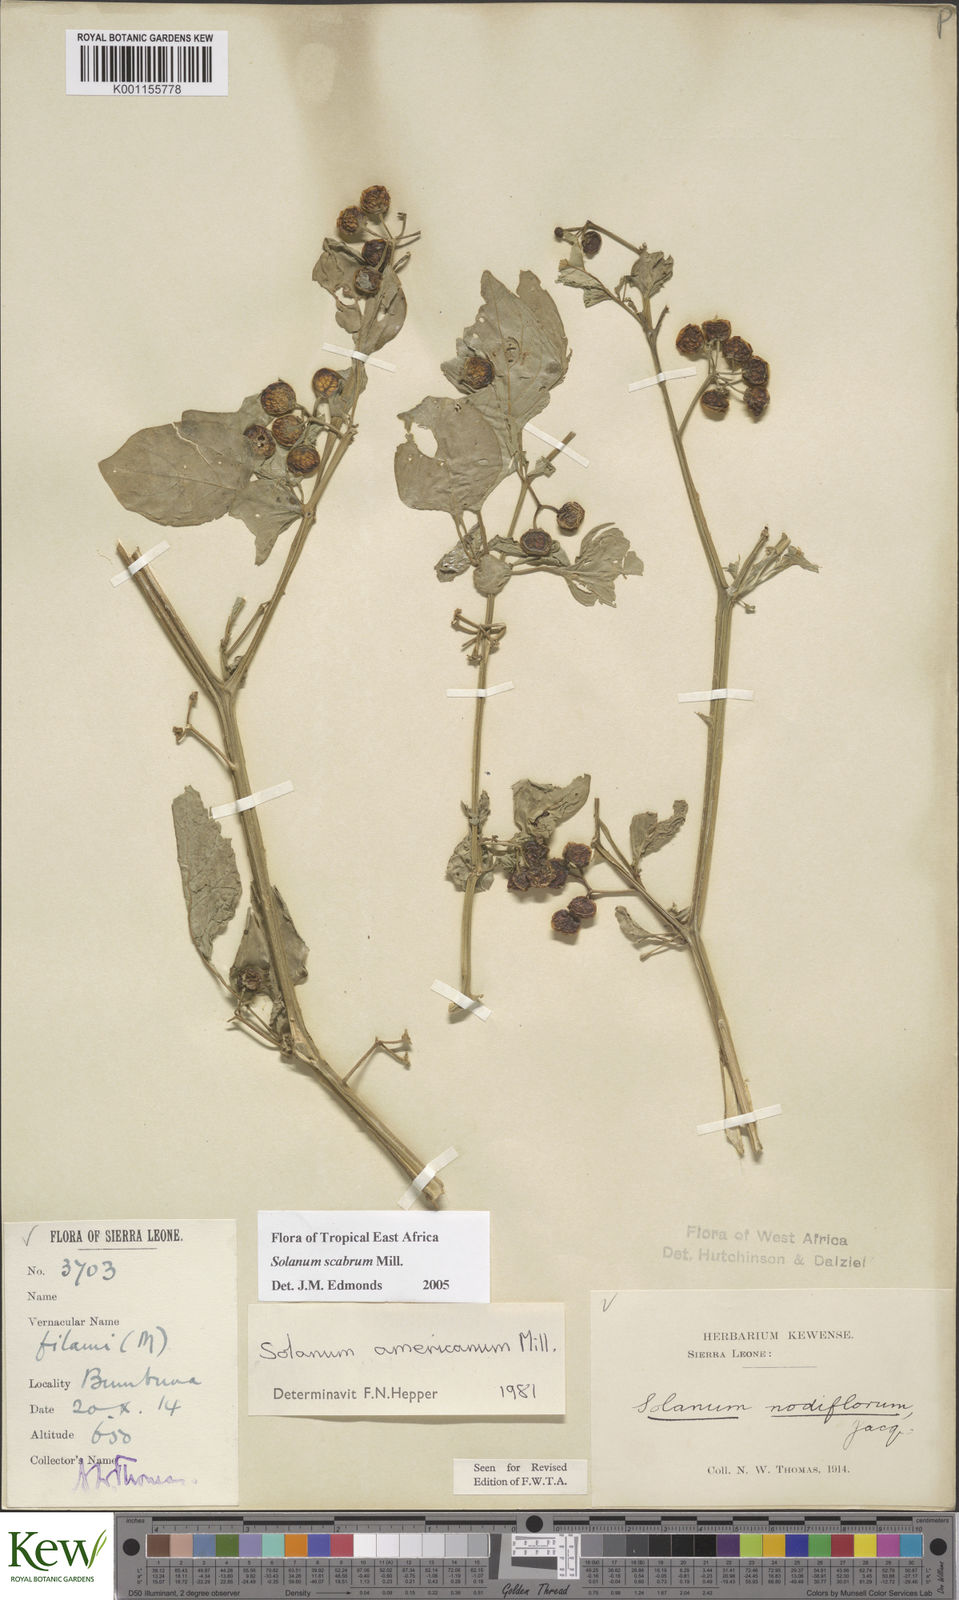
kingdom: Plantae
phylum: Tracheophyta
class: Magnoliopsida
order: Solanales
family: Solanaceae
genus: Solanum
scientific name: Solanum scabrum
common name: Garden-huckleberry
